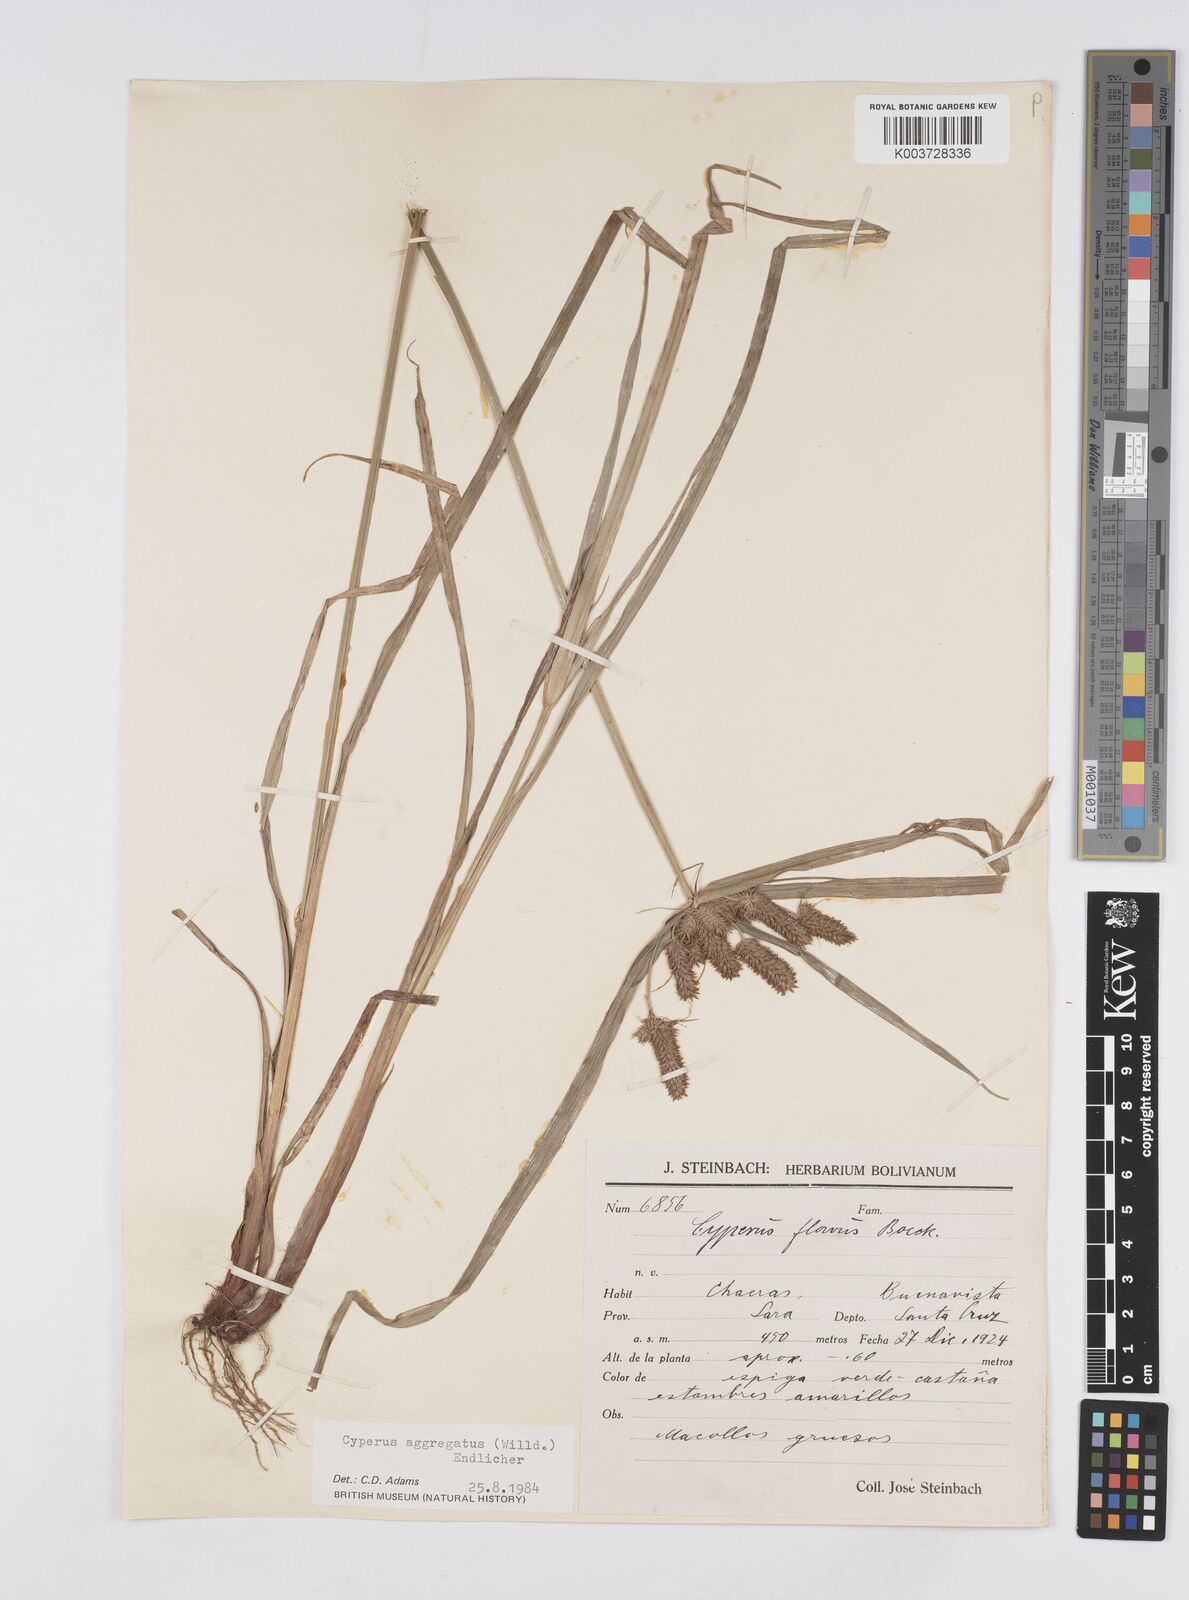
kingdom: Plantae
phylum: Tracheophyta
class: Liliopsida
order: Poales
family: Cyperaceae
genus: Cyperus
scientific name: Cyperus aggregatus
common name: Inflatedscale flatsedge
